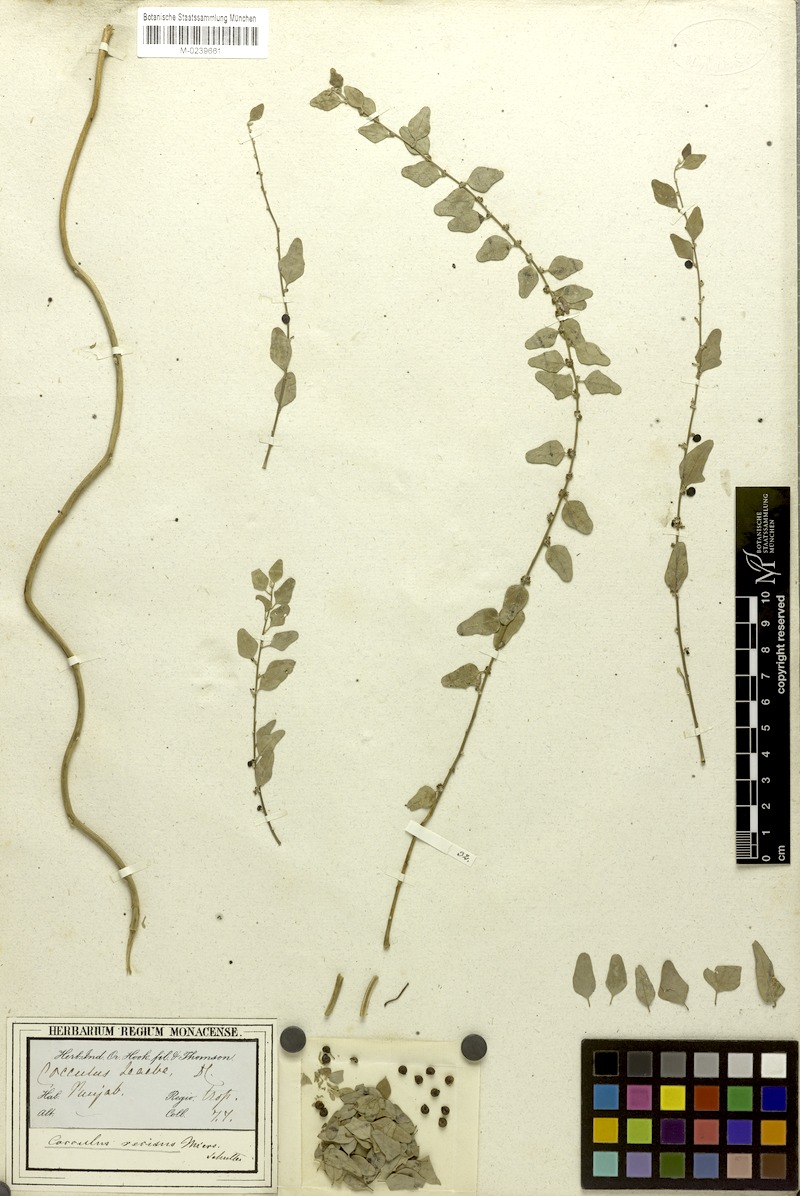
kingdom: Plantae
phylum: Tracheophyta
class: Magnoliopsida
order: Ranunculales
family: Menispermaceae
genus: Cocculus
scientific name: Cocculus pendulus
